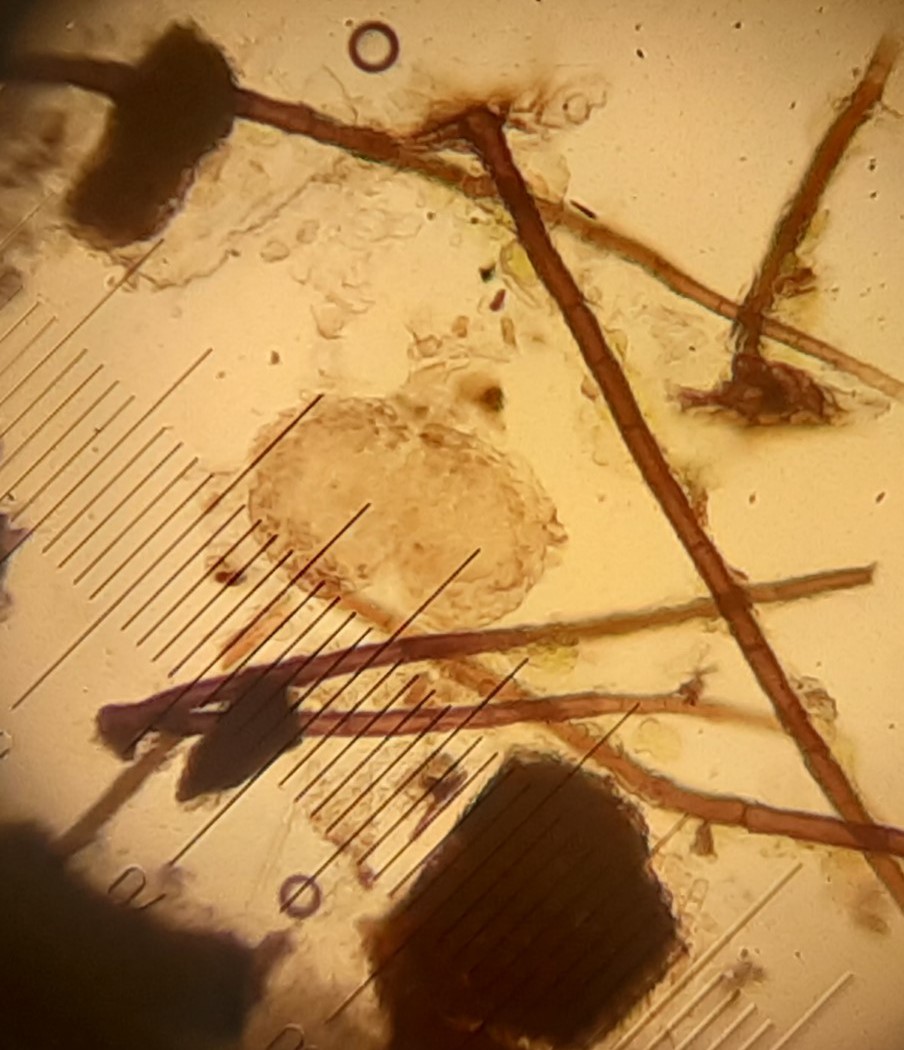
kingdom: Fungi
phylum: Ascomycota
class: Sordariomycetes
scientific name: Sordariomycetes
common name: kernesvampklassen
